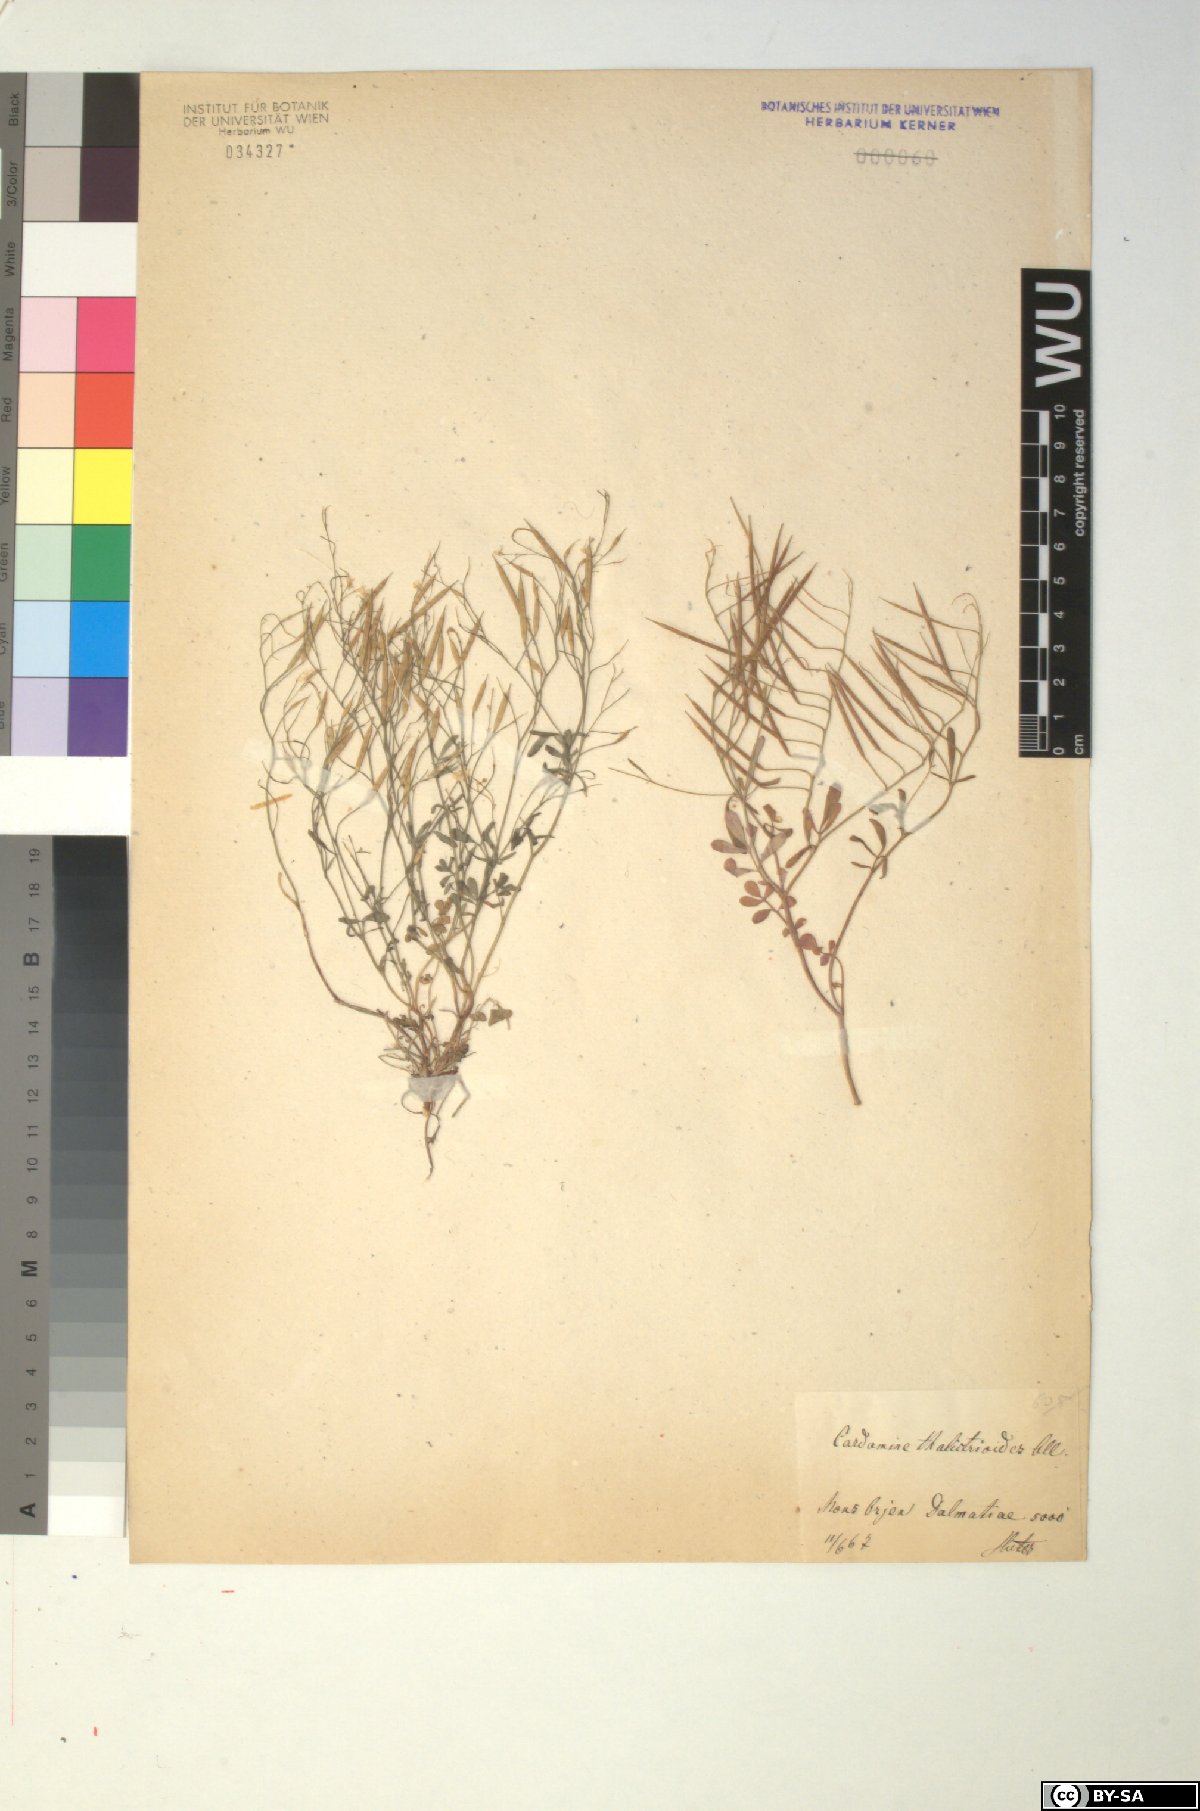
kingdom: Plantae
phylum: Tracheophyta
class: Magnoliopsida
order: Brassicales
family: Brassicaceae
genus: Cardamine
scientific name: Cardamine glauca
